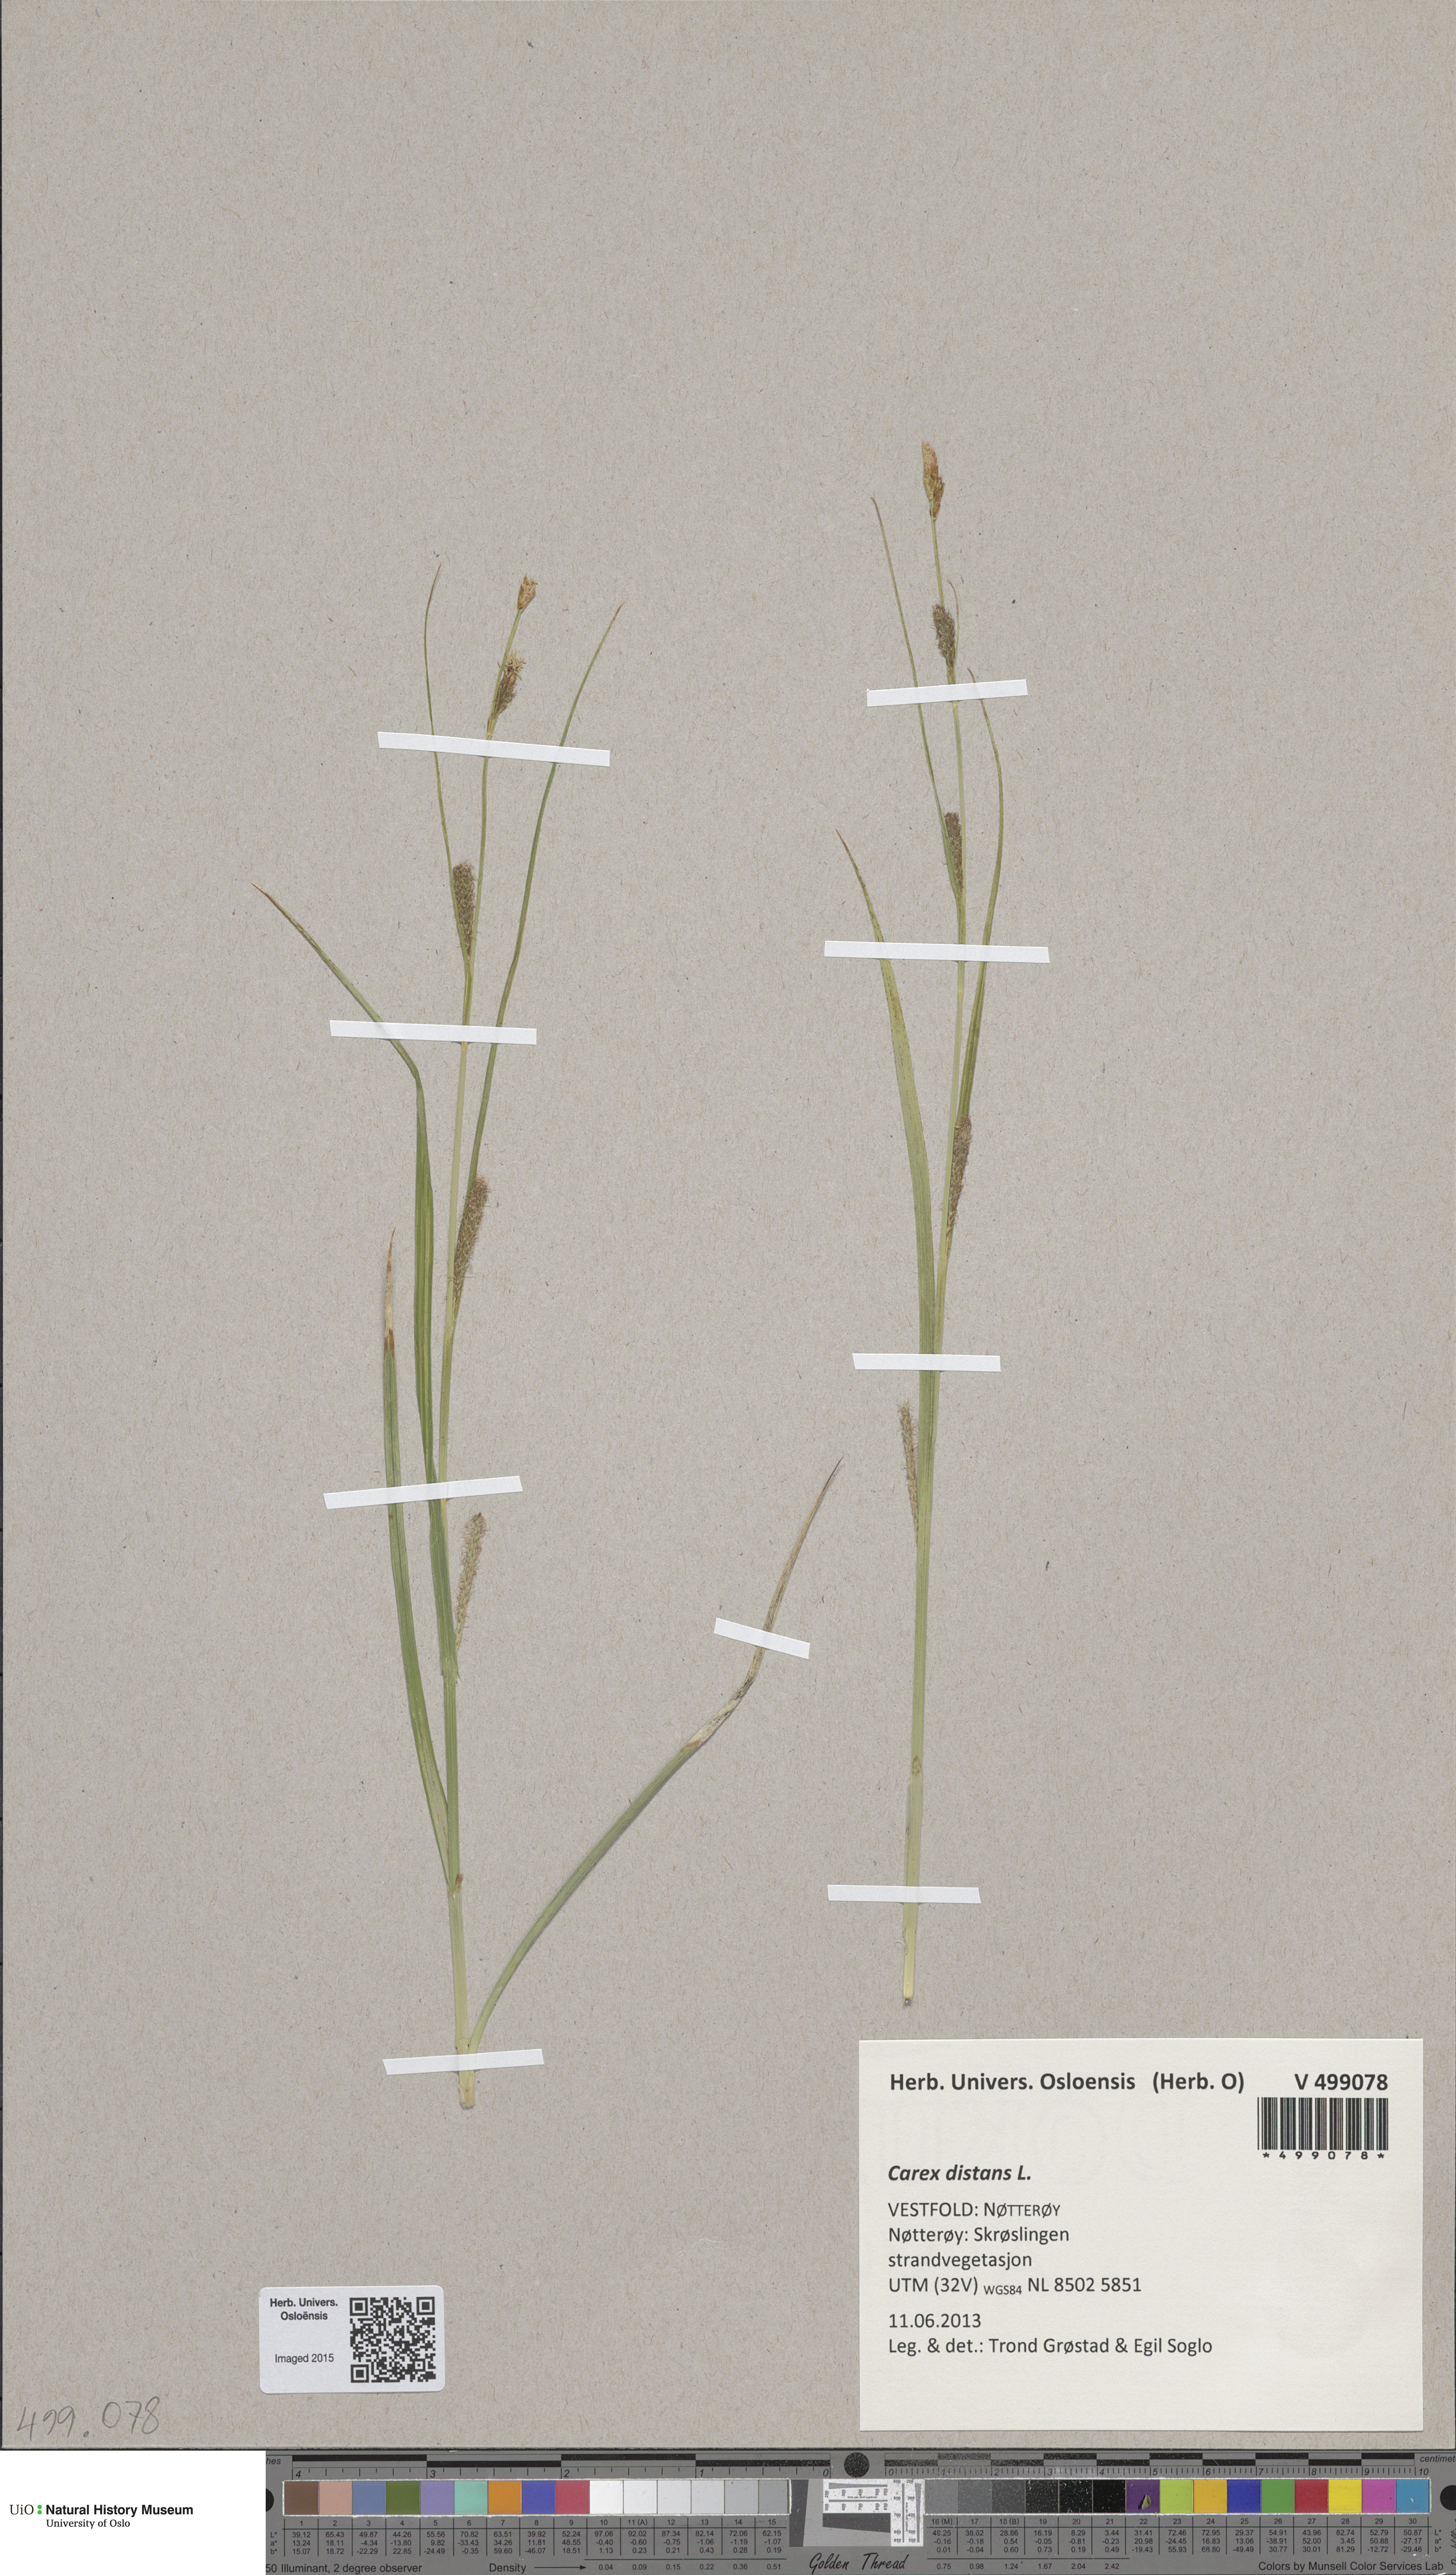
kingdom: Plantae
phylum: Tracheophyta
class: Liliopsida
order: Poales
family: Cyperaceae
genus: Carex
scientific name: Carex distans
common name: Distant sedge
